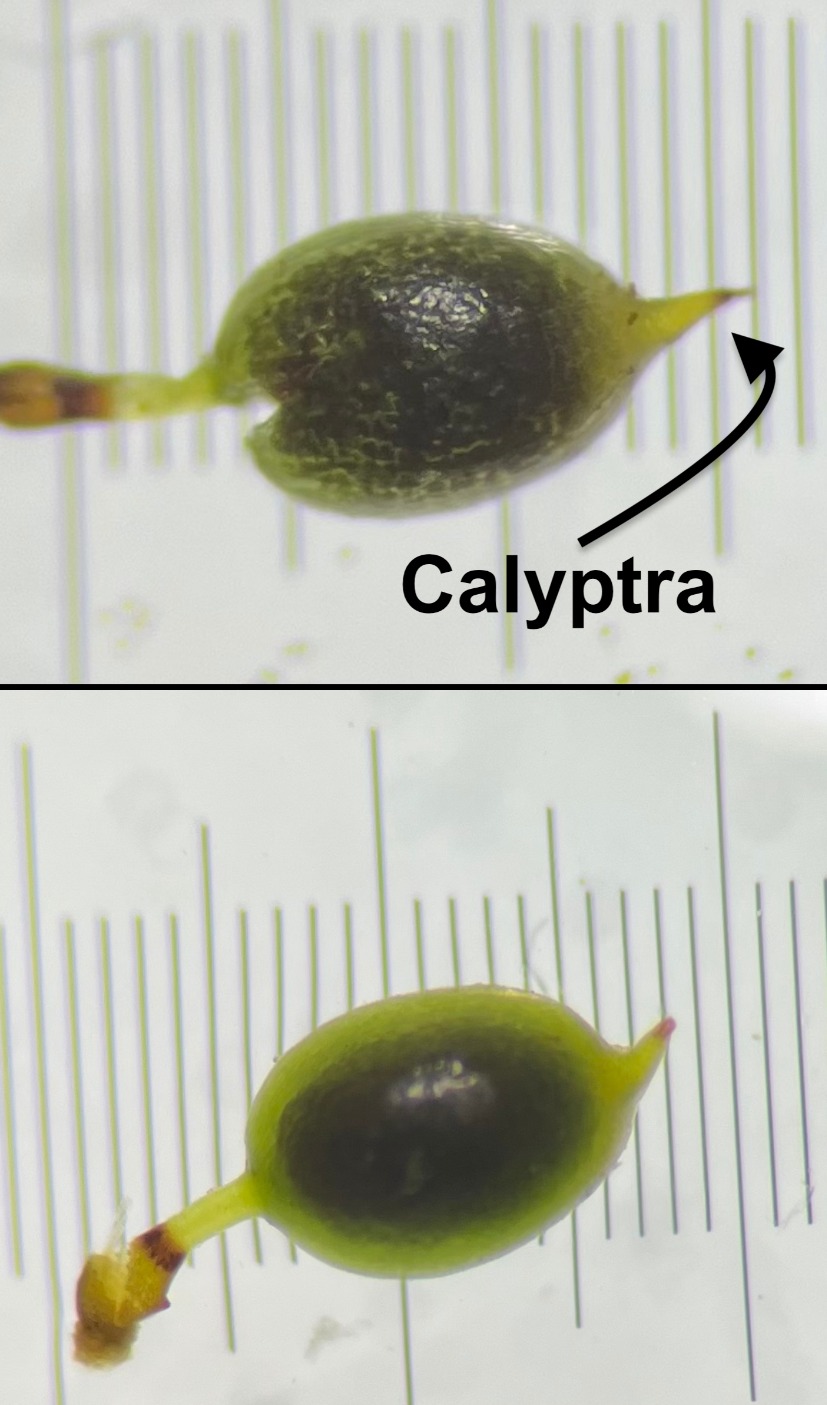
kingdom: Plantae
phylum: Bryophyta
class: Bryopsida
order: Pottiales
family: Pottiaceae
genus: Weissia
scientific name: Weissia longifolia
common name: Kruset lidenmos
